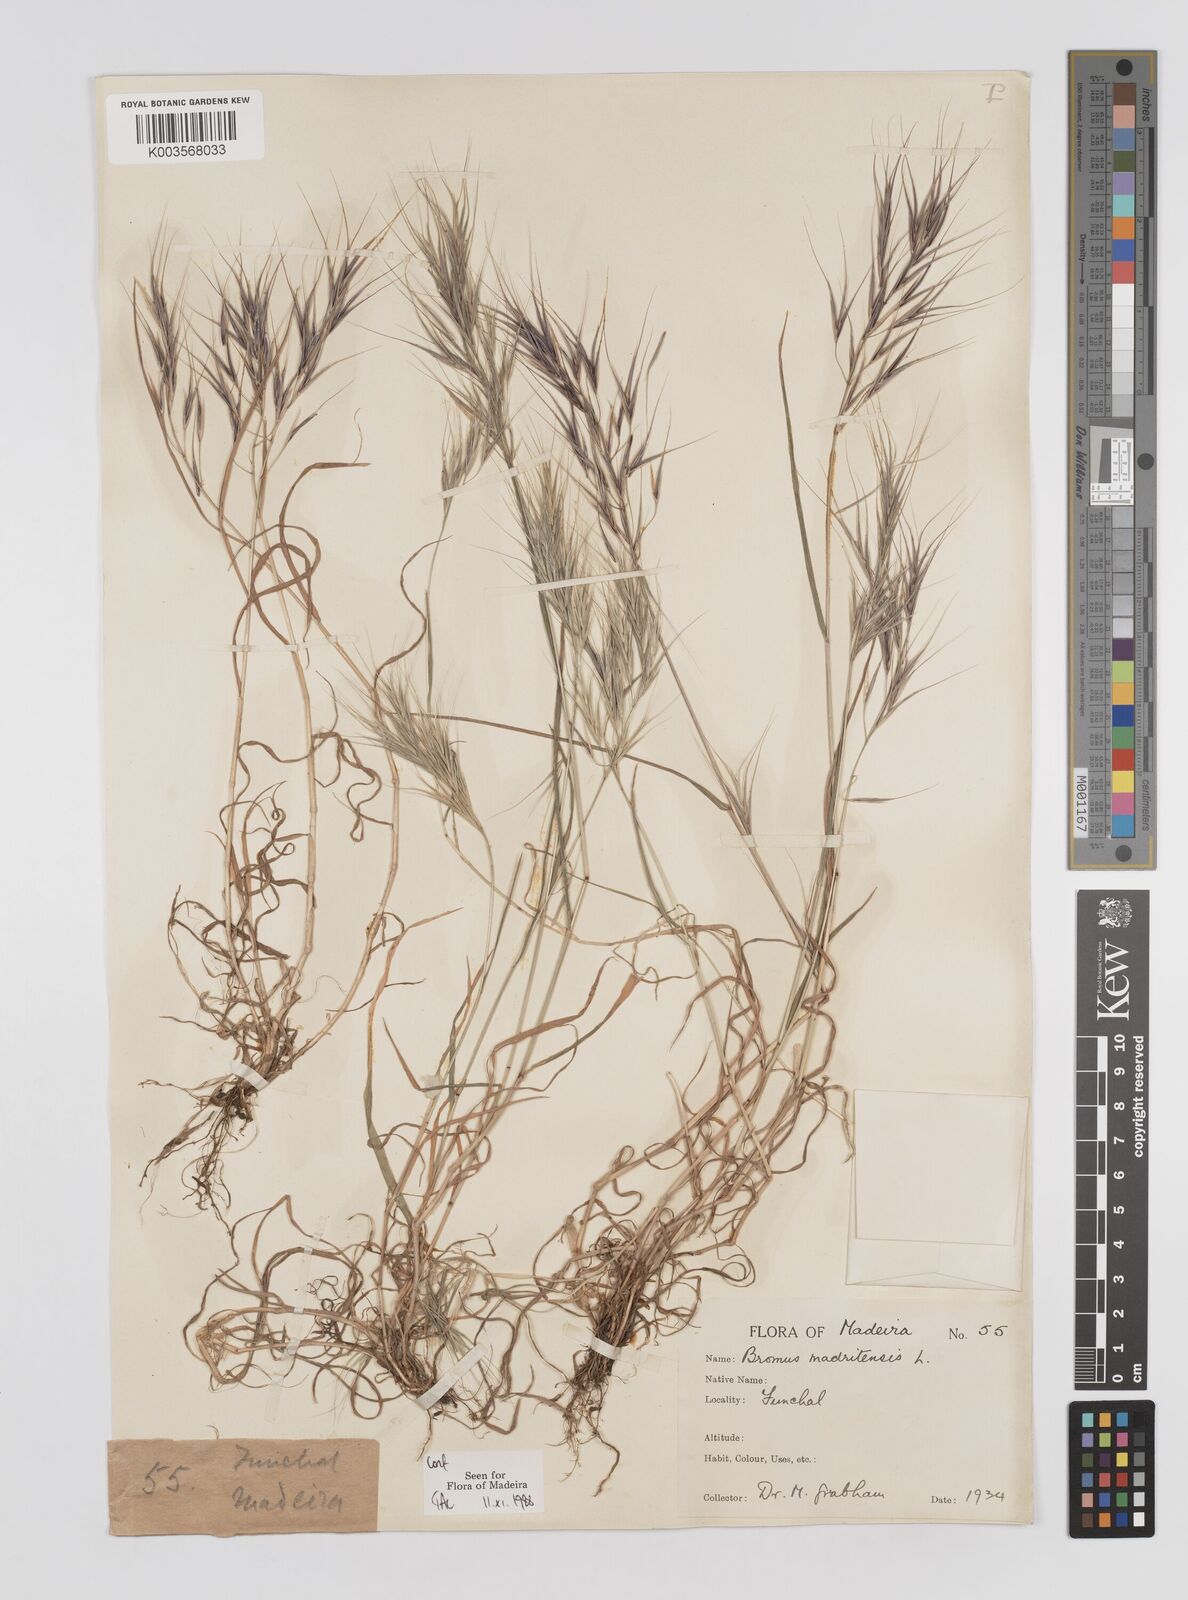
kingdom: Plantae
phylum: Tracheophyta
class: Liliopsida
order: Poales
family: Poaceae
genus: Bromus
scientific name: Bromus
